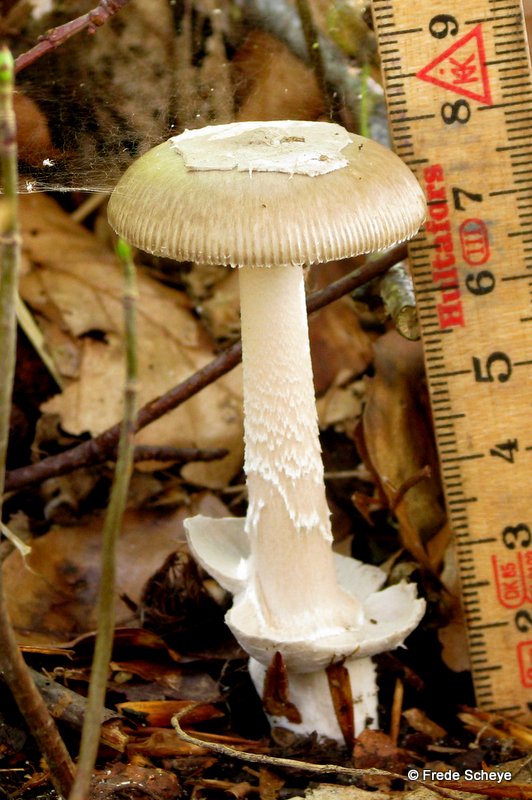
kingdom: Fungi
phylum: Basidiomycota
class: Agaricomycetes
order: Agaricales
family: Amanitaceae
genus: Amanita
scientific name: Amanita submembranacea
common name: gråspættet kam-fluesvamp
